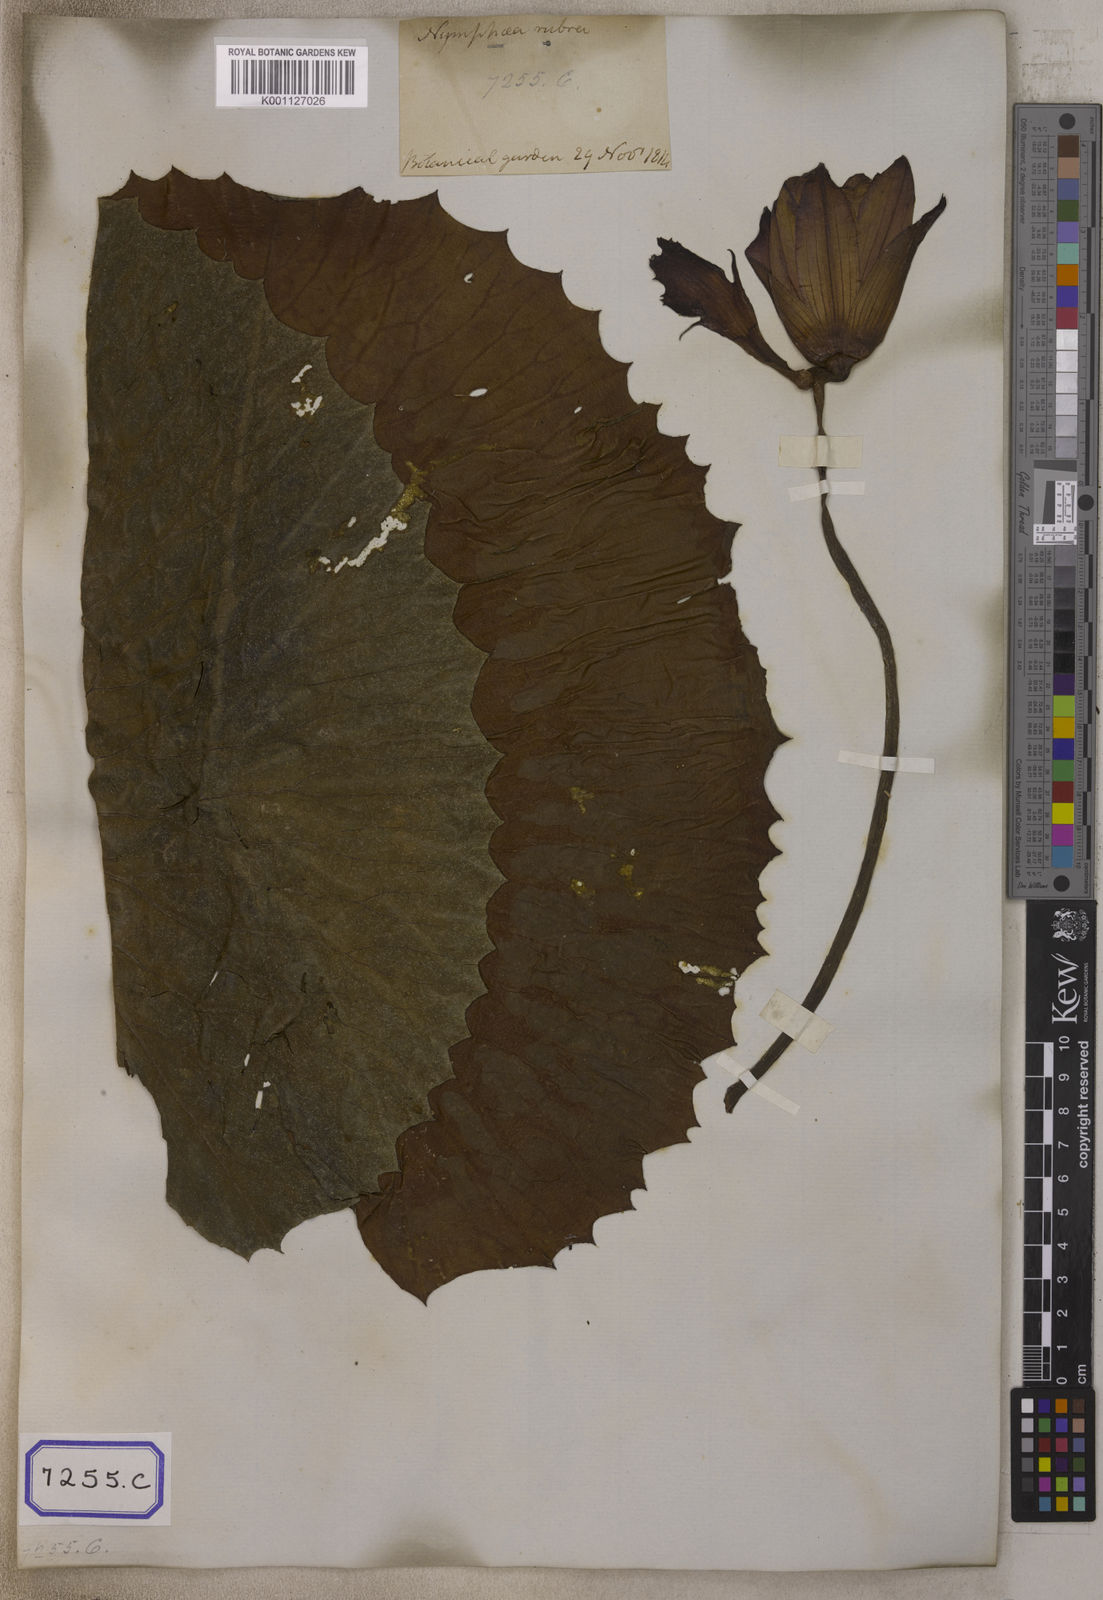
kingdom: Plantae
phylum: Tracheophyta
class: Magnoliopsida
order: Nymphaeales
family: Nymphaeaceae
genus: Nymphaea
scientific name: Nymphaea
